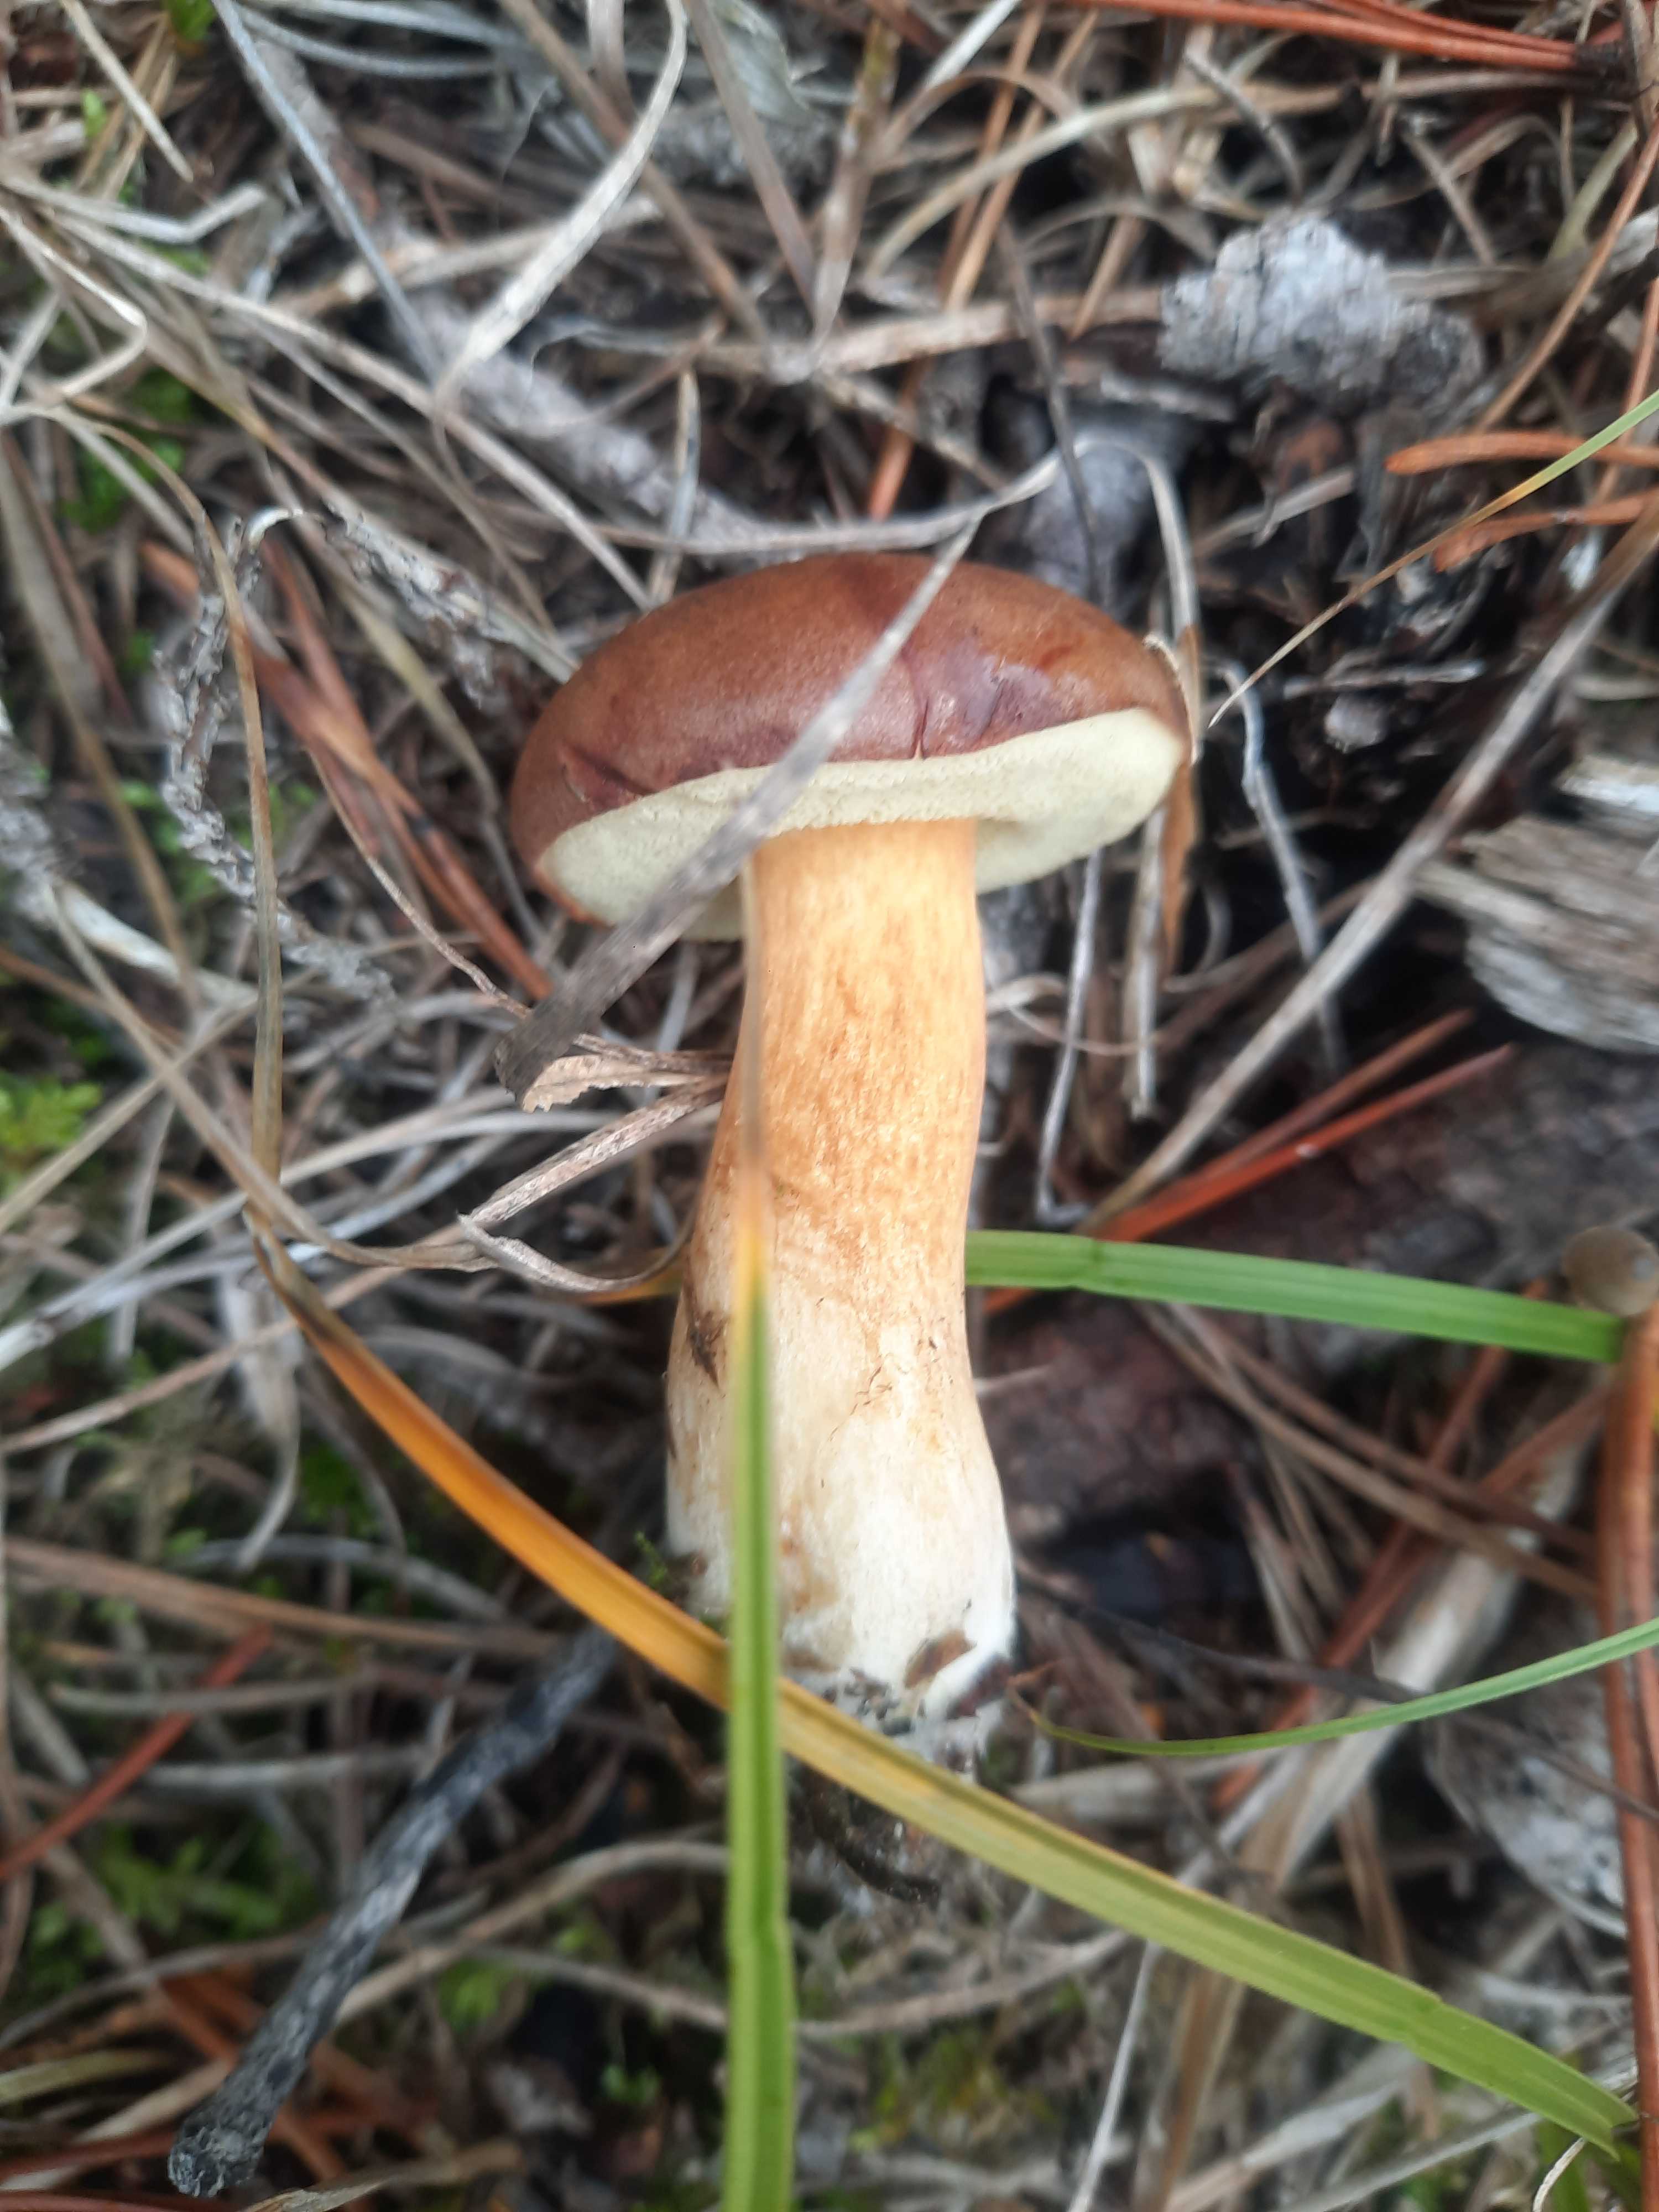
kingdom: Fungi
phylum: Basidiomycota
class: Agaricomycetes
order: Boletales
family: Boletaceae
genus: Imleria
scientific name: Imleria badia
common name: brunstokket rørhat
